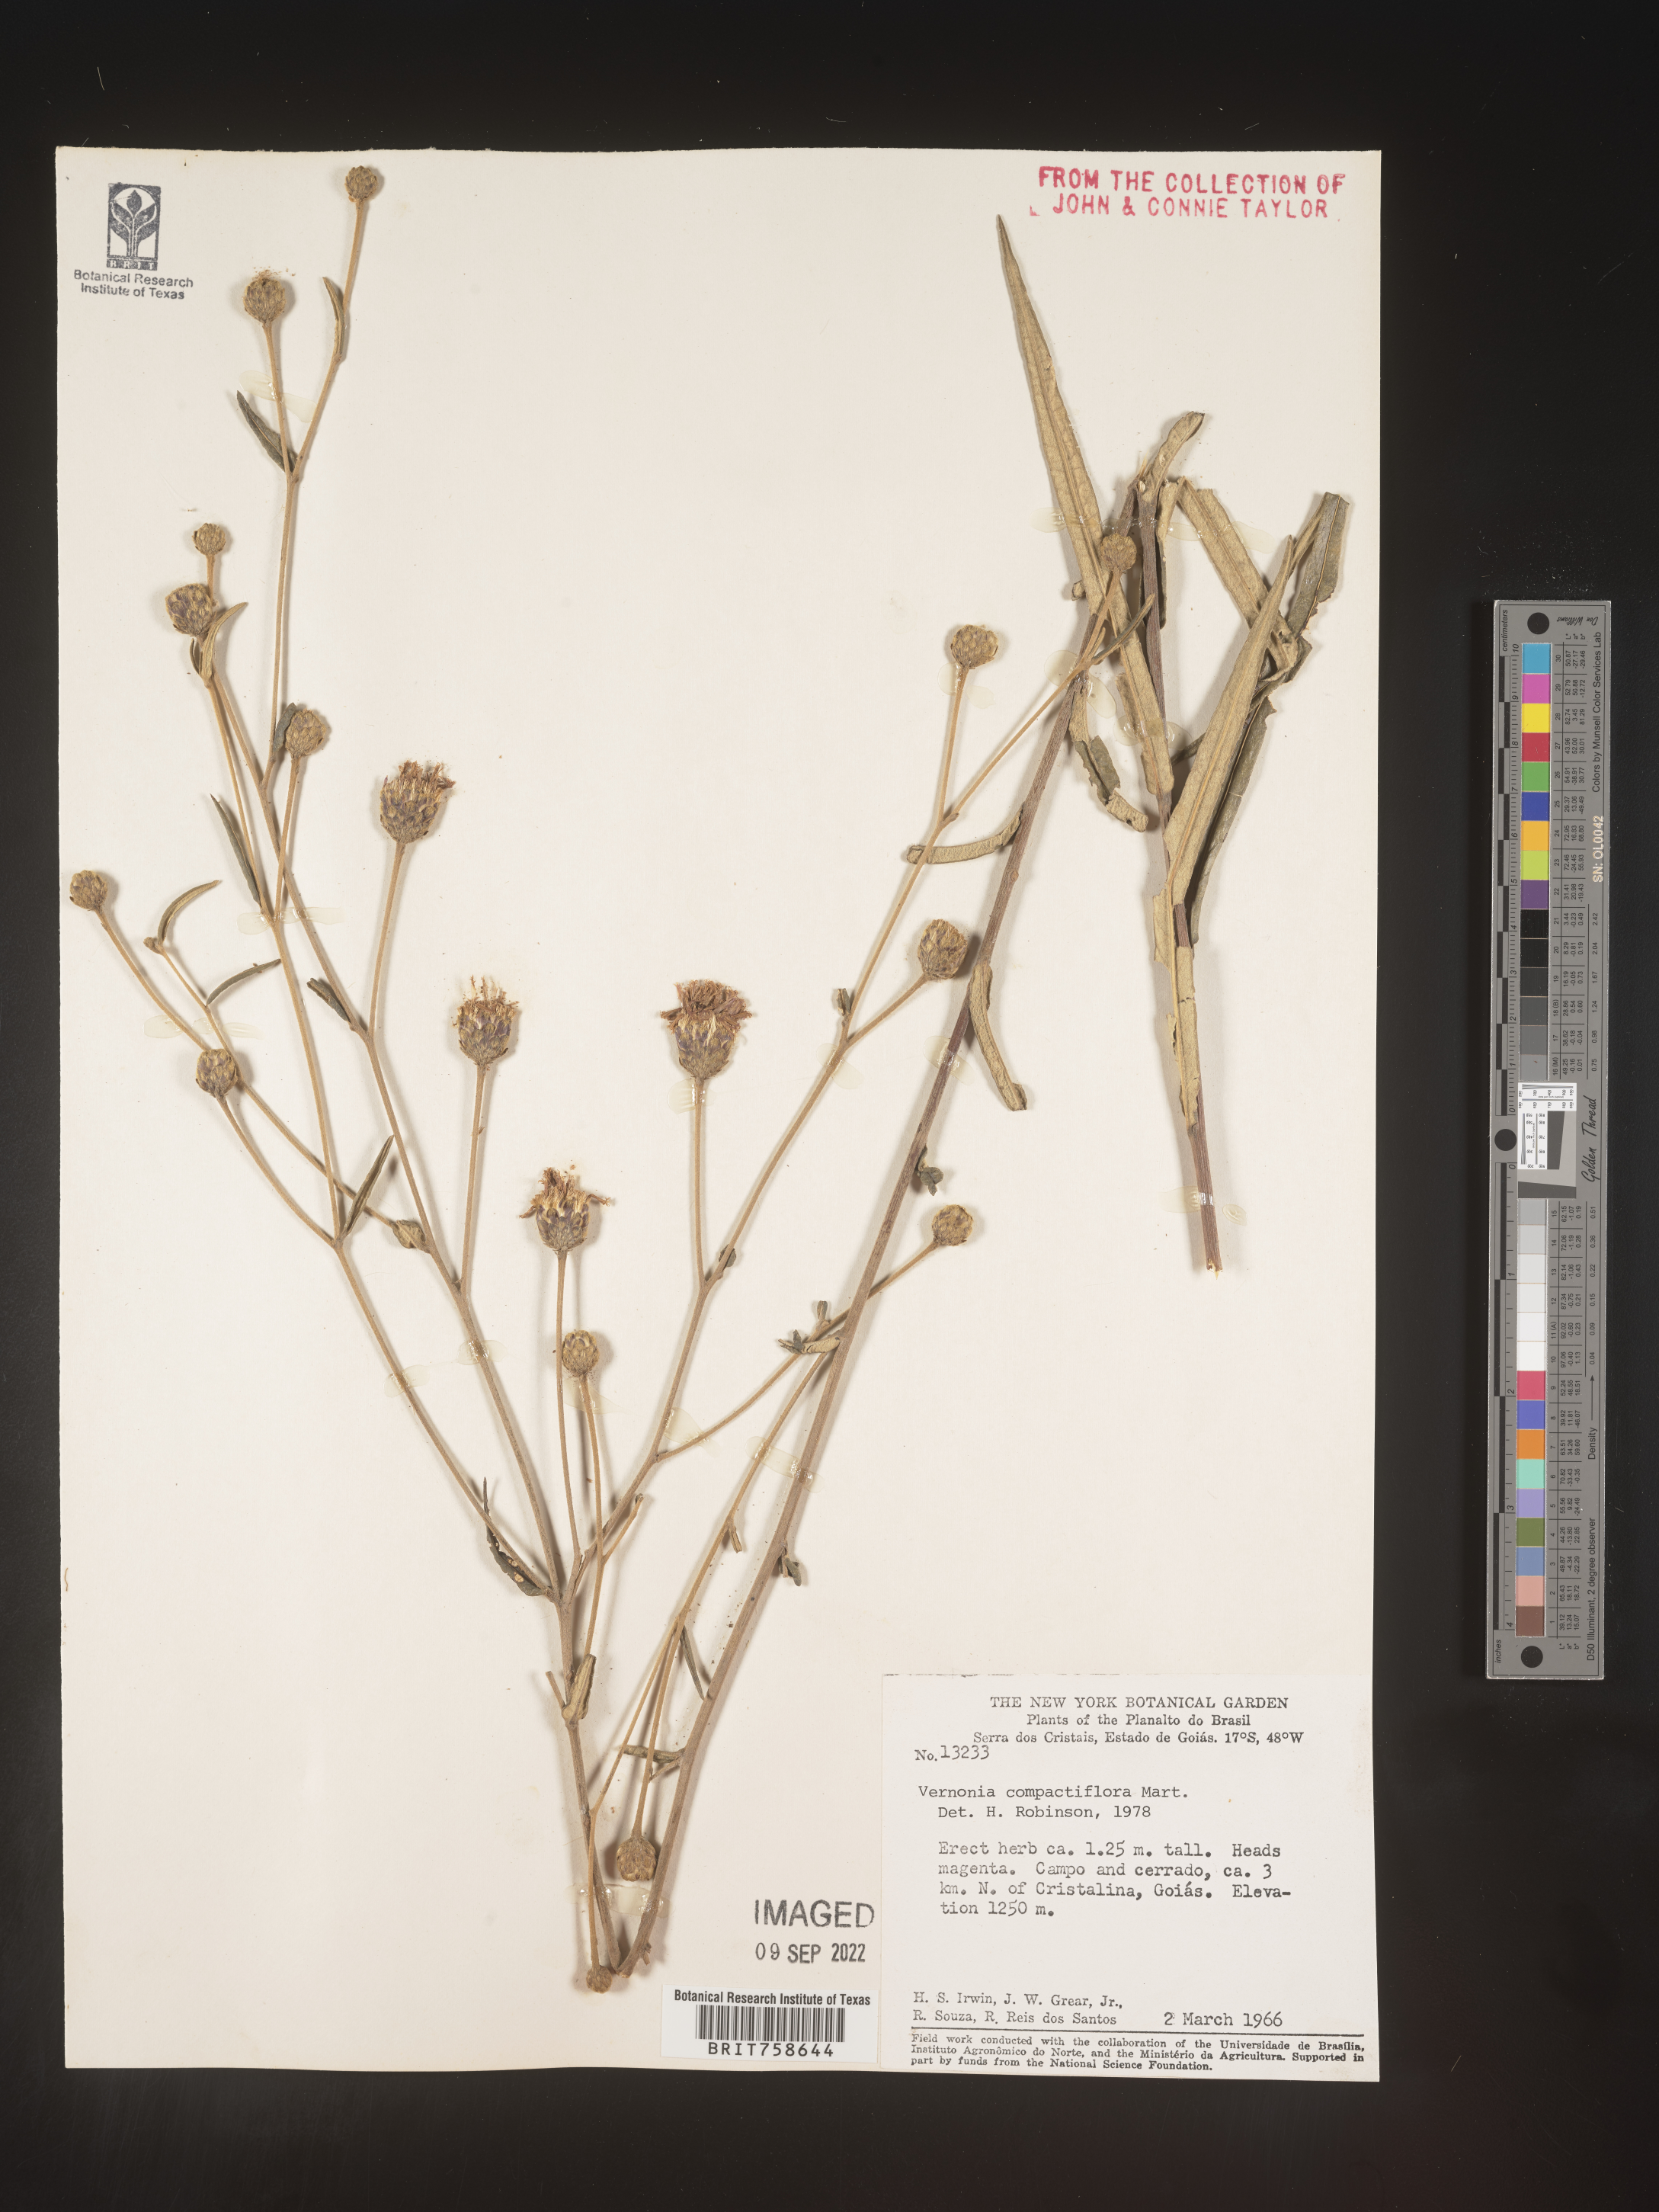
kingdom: Plantae
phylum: Tracheophyta
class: Magnoliopsida
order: Asterales
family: Asteraceae
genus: Vernonia
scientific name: Vernonia
